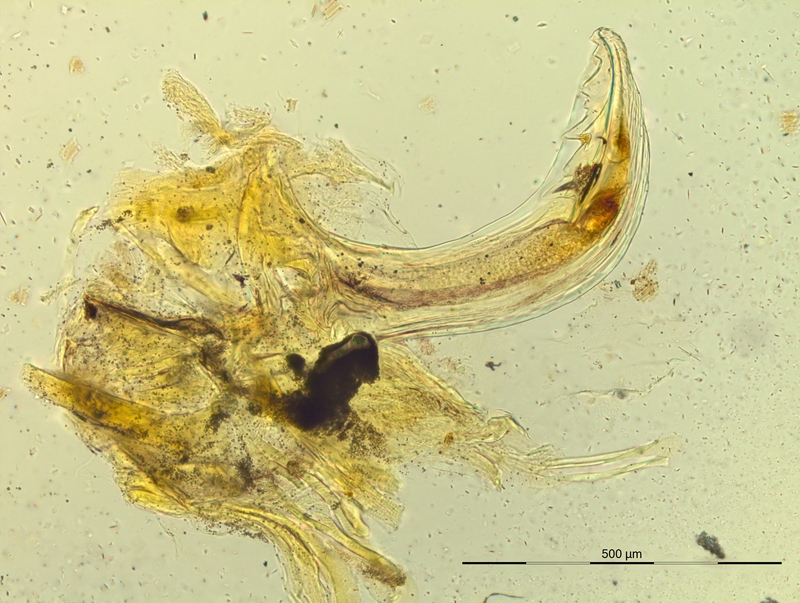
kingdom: Animalia
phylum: Arthropoda
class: Diplopoda
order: Chordeumatida
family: Craspedosomatidae
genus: Pyrgocyphosoma
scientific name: Pyrgocyphosoma tendanum
